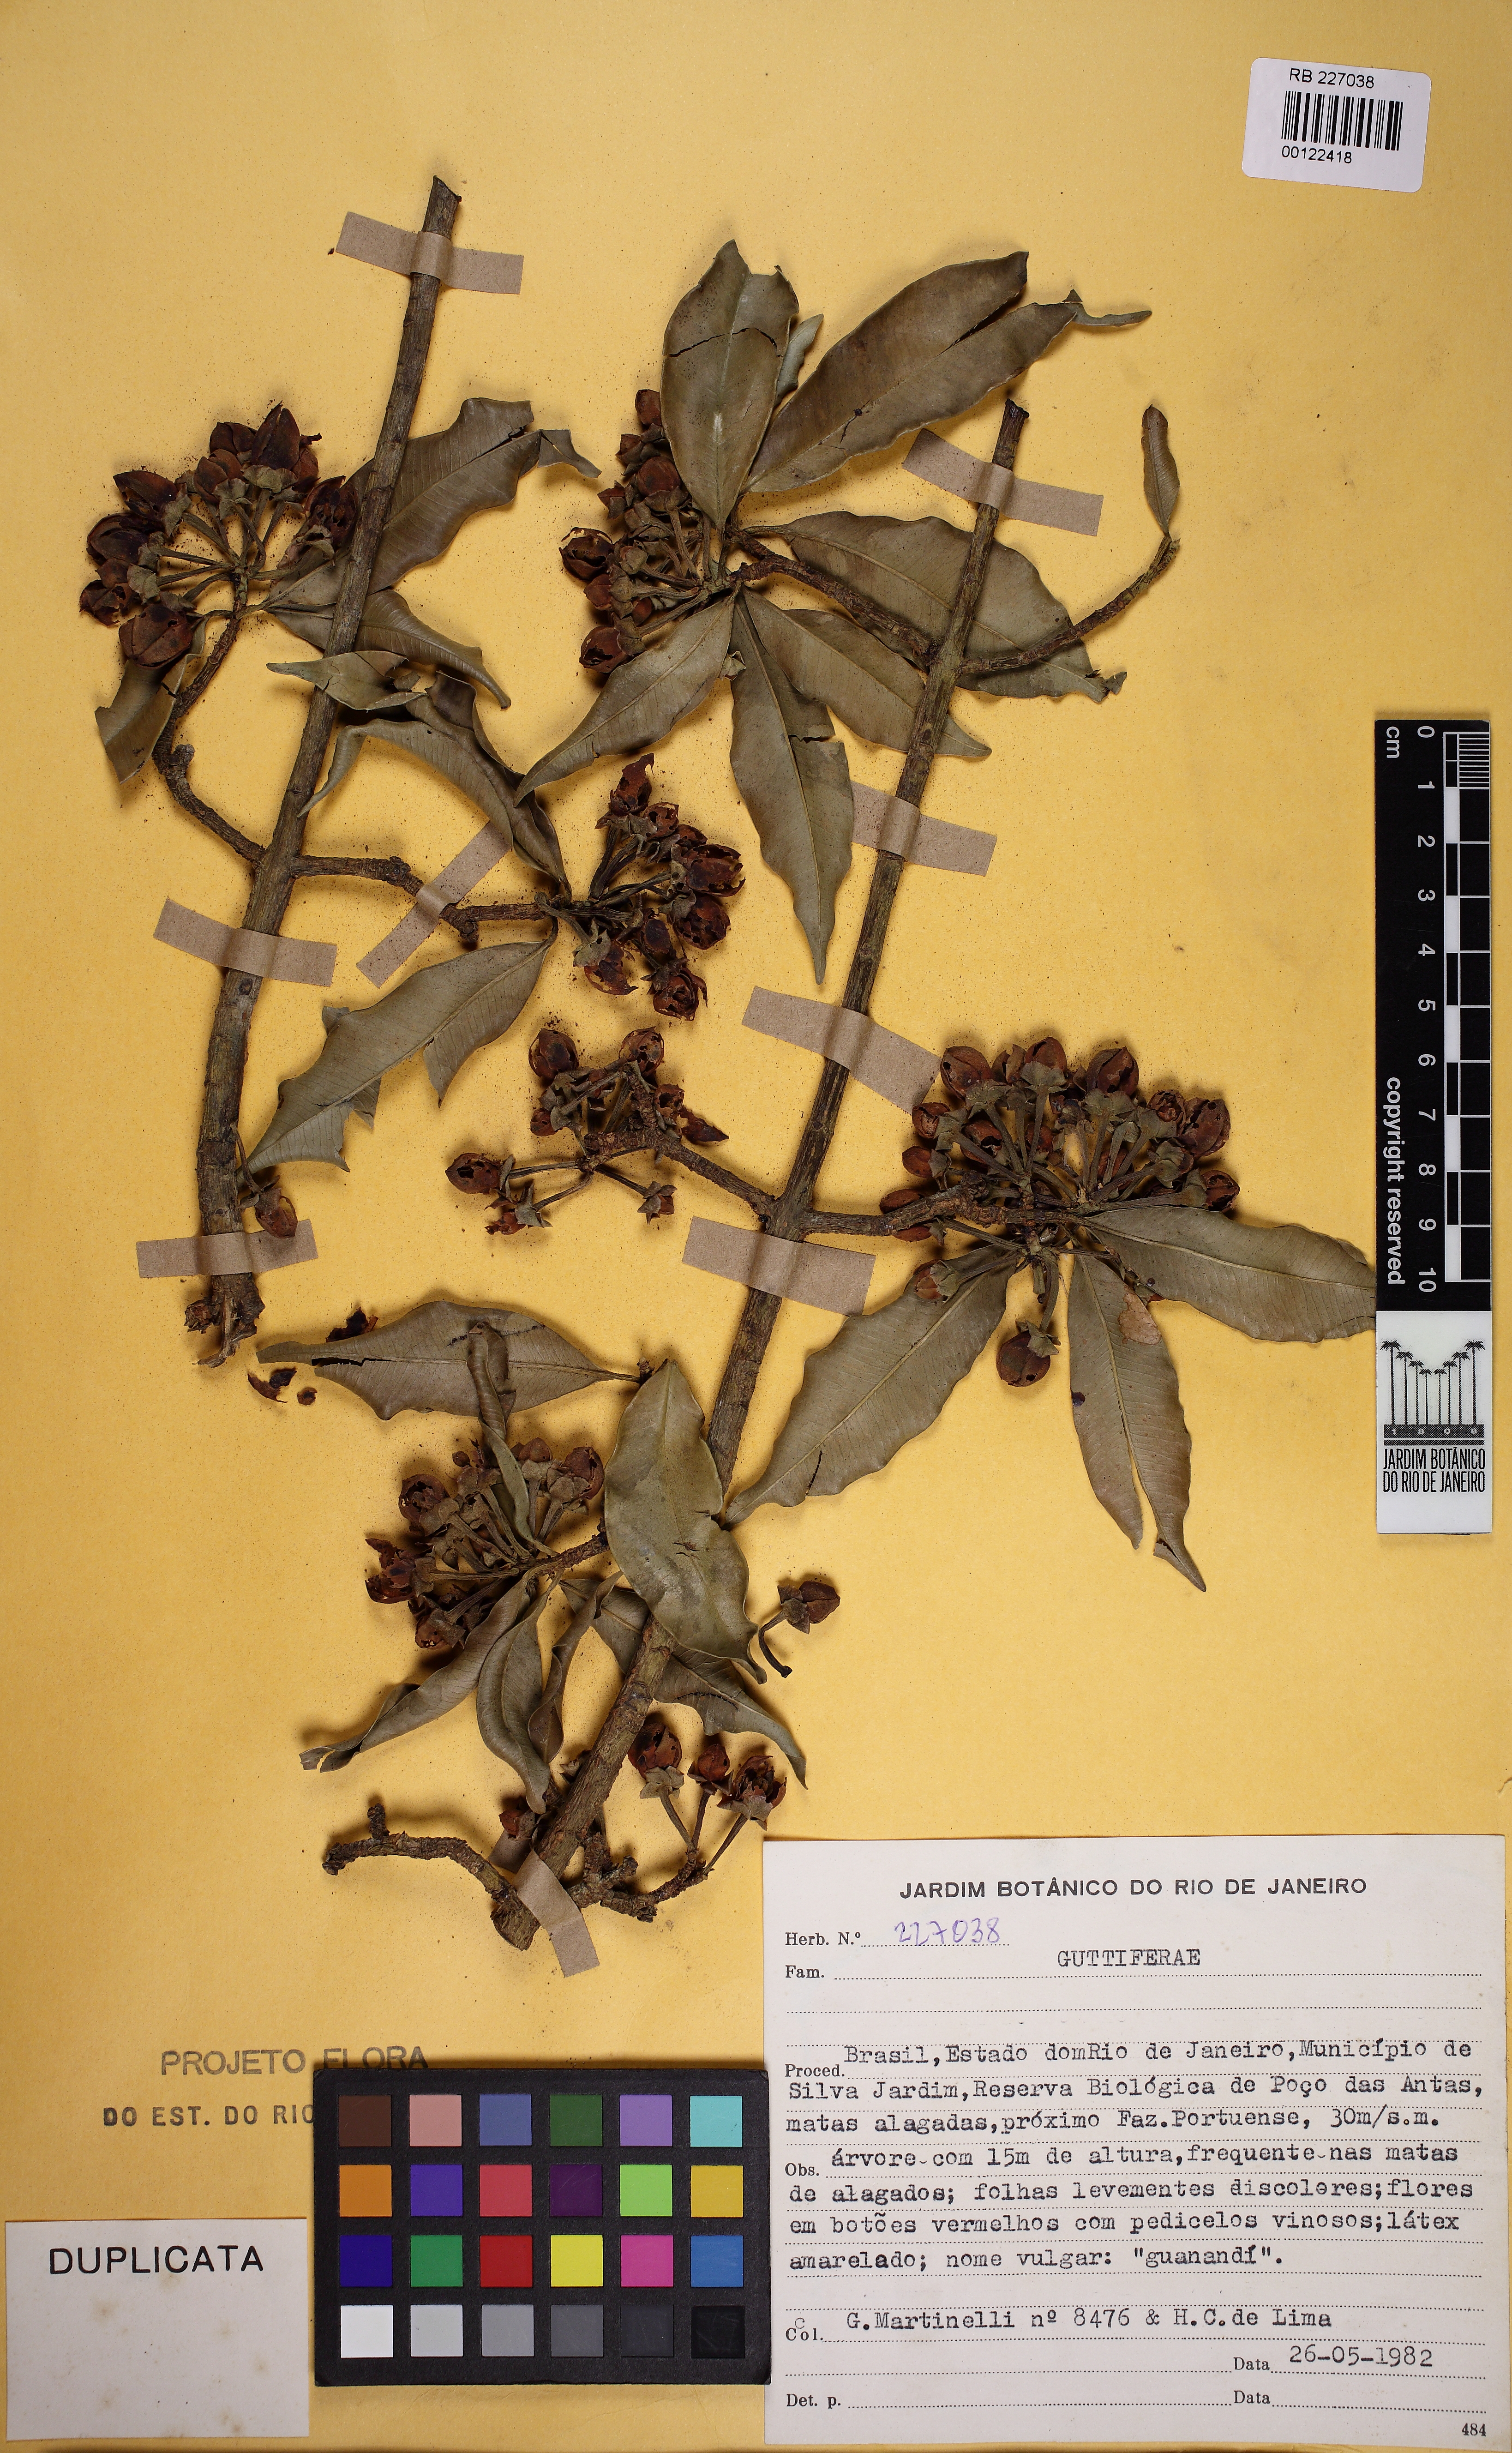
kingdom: Plantae
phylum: Tracheophyta
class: Magnoliopsida
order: Malpighiales
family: Clusiaceae
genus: Symphonia
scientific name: Symphonia globulifera
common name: Boarwood
